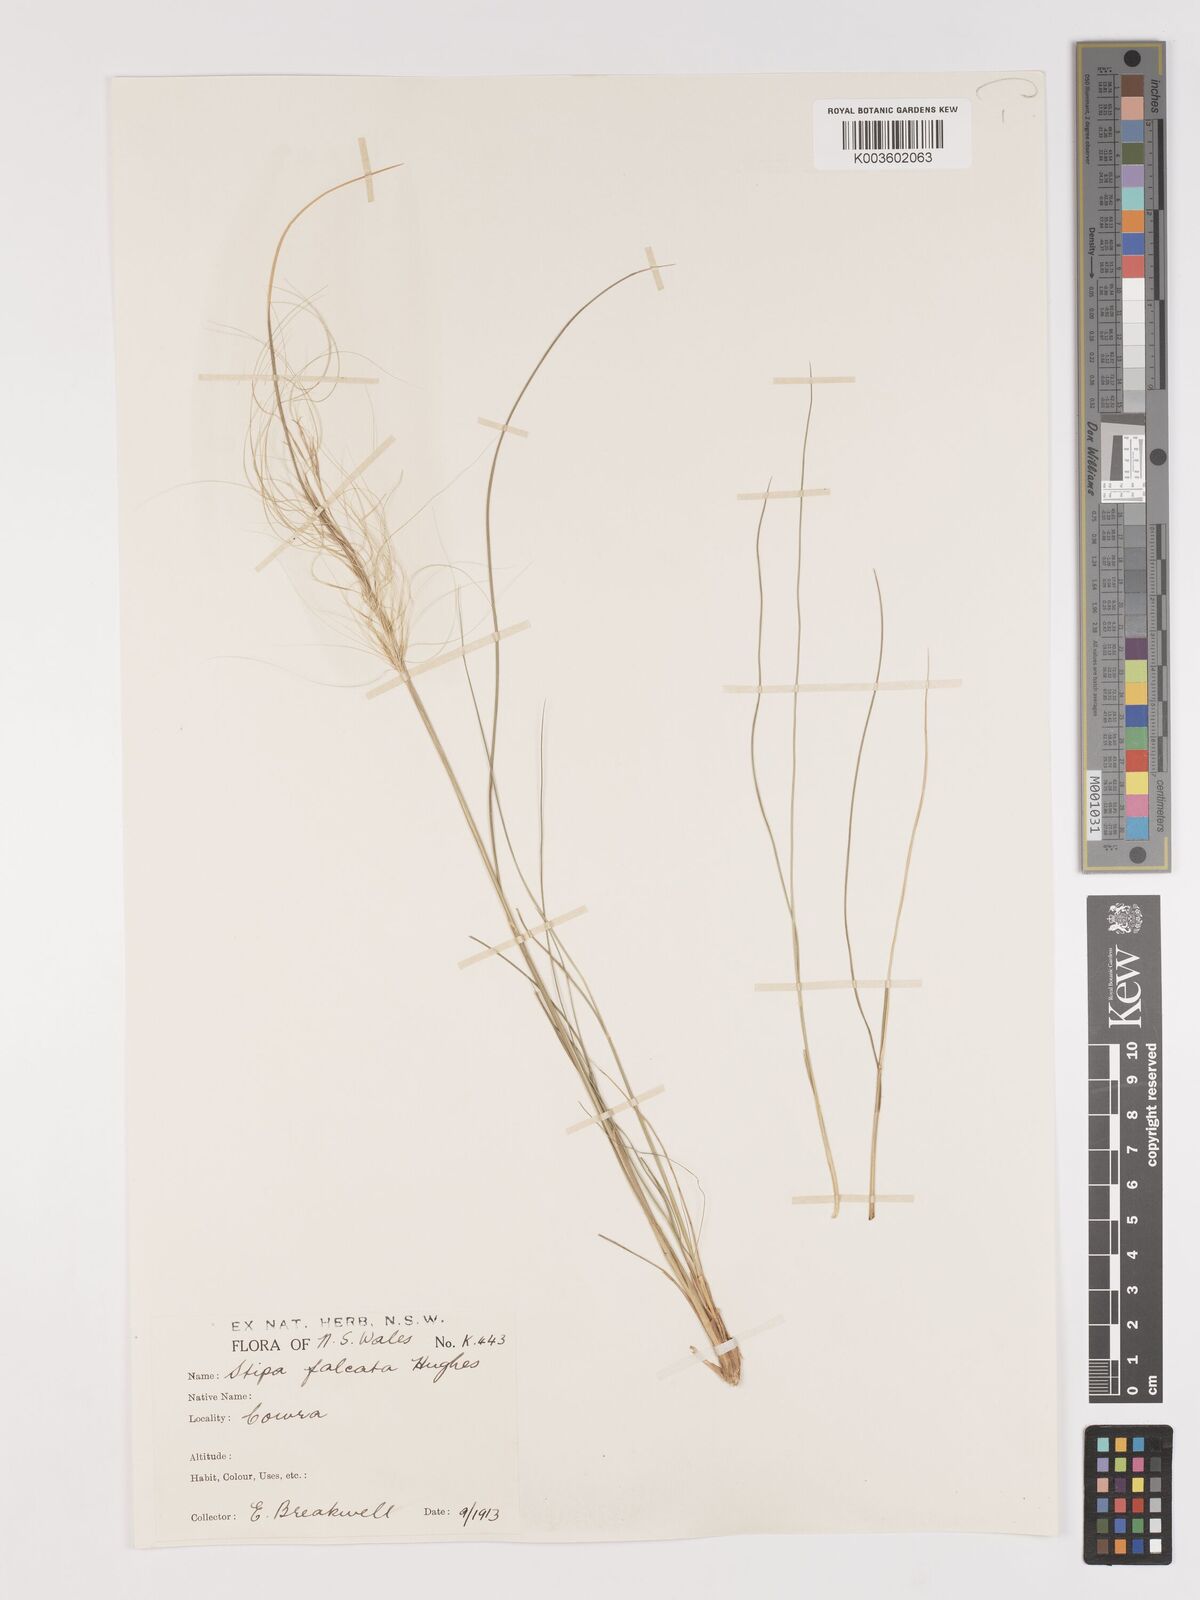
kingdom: Plantae
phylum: Tracheophyta
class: Liliopsida
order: Poales
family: Poaceae
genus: Austrostipa
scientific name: Austrostipa scabra
